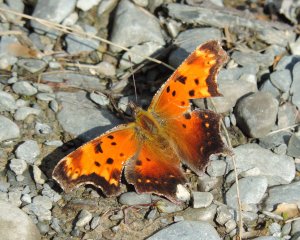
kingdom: Animalia
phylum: Arthropoda
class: Insecta
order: Lepidoptera
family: Nymphalidae
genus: Polygonia
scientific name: Polygonia progne
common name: Gray Comma
